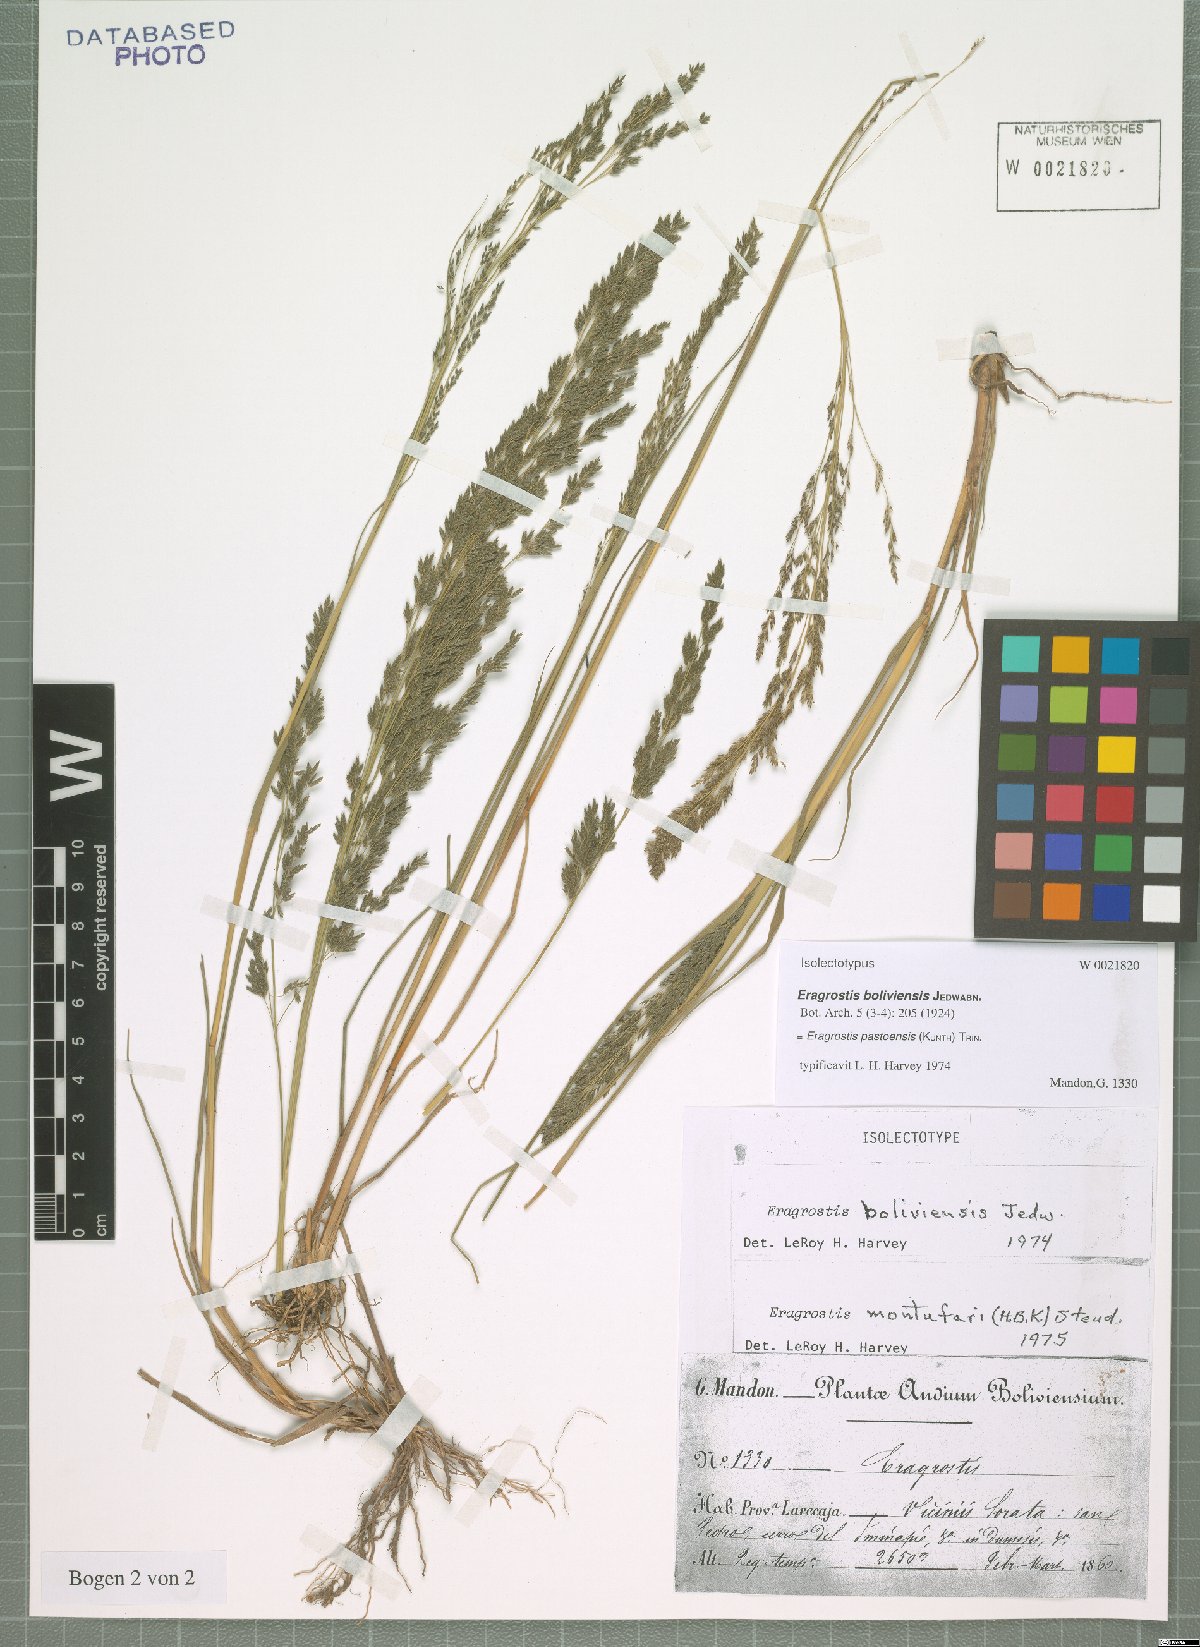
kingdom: Plantae
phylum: Tracheophyta
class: Liliopsida
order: Poales
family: Poaceae
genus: Eragrostis
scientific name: Eragrostis pastoensis
